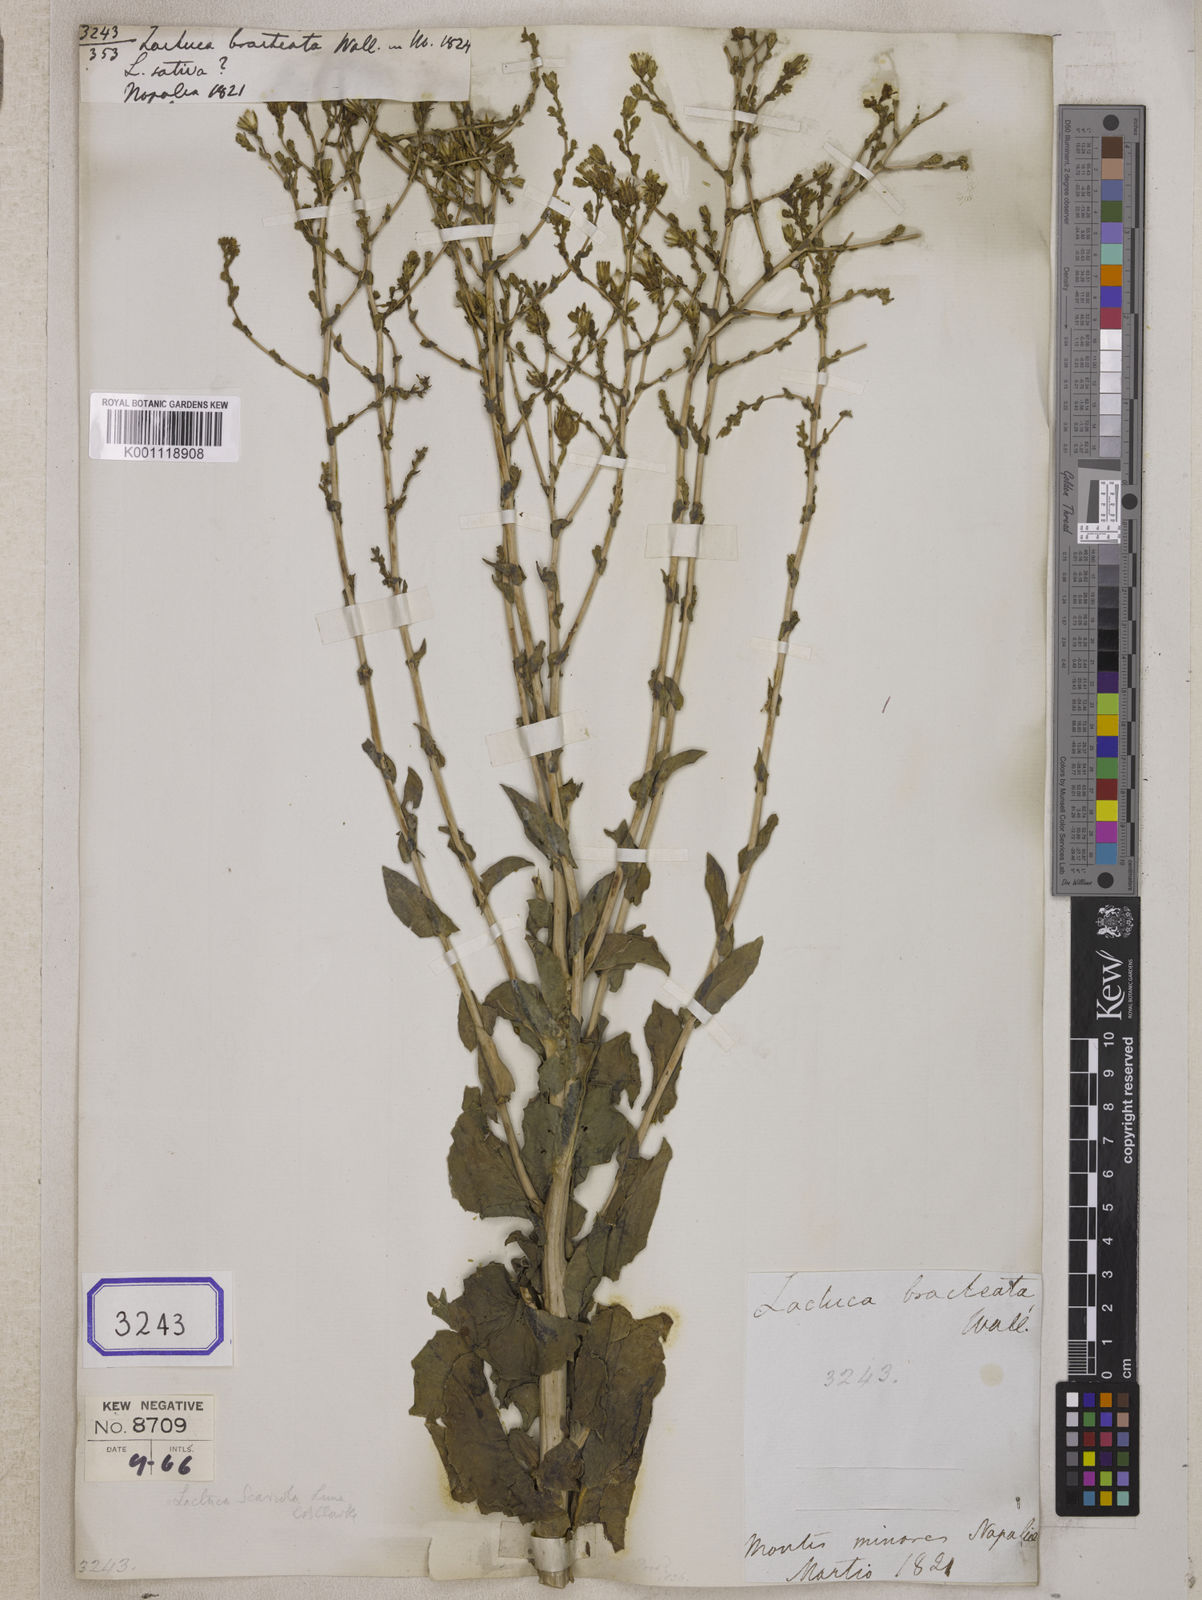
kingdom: Plantae
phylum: Tracheophyta
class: Magnoliopsida
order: Asterales
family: Asteraceae
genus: Lactuca
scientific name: Lactuca serriola
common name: Prickly lettuce
